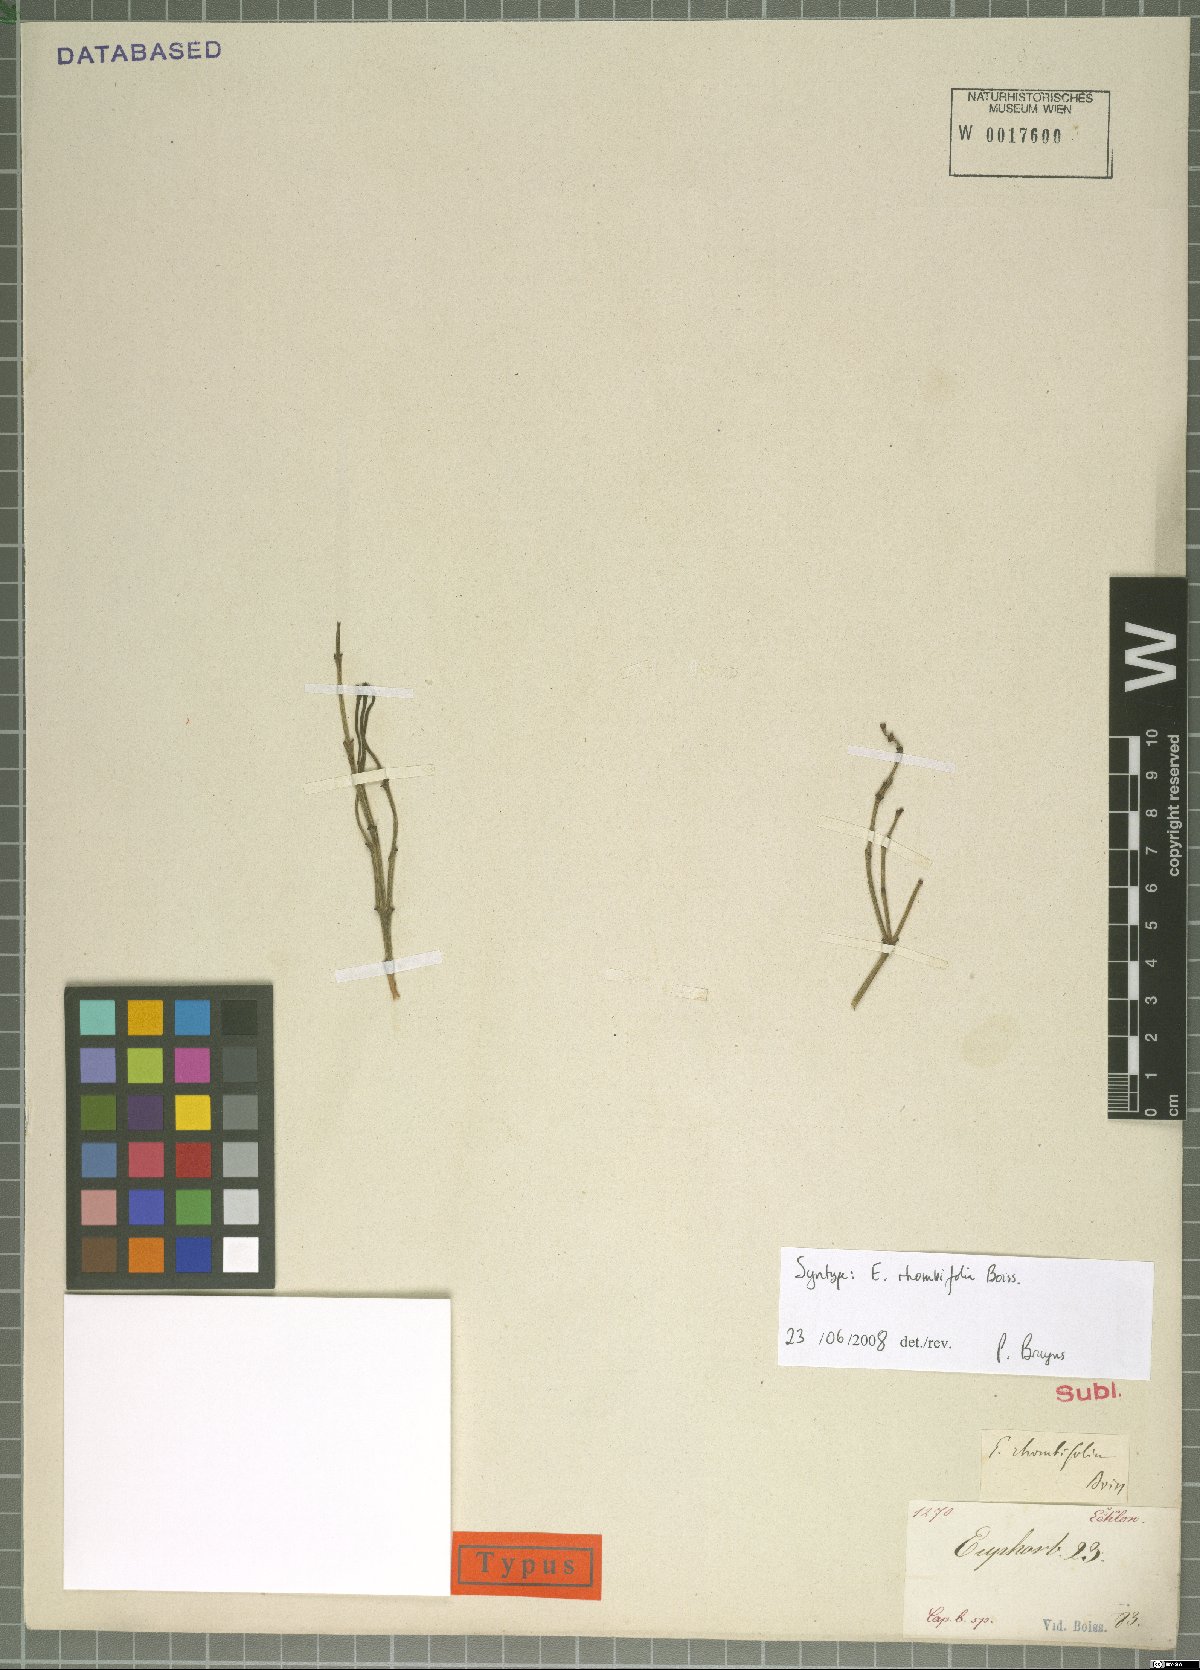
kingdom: Plantae
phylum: Tracheophyta
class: Magnoliopsida
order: Malpighiales
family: Euphorbiaceae
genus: Euphorbia
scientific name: Euphorbia rhombifolia
